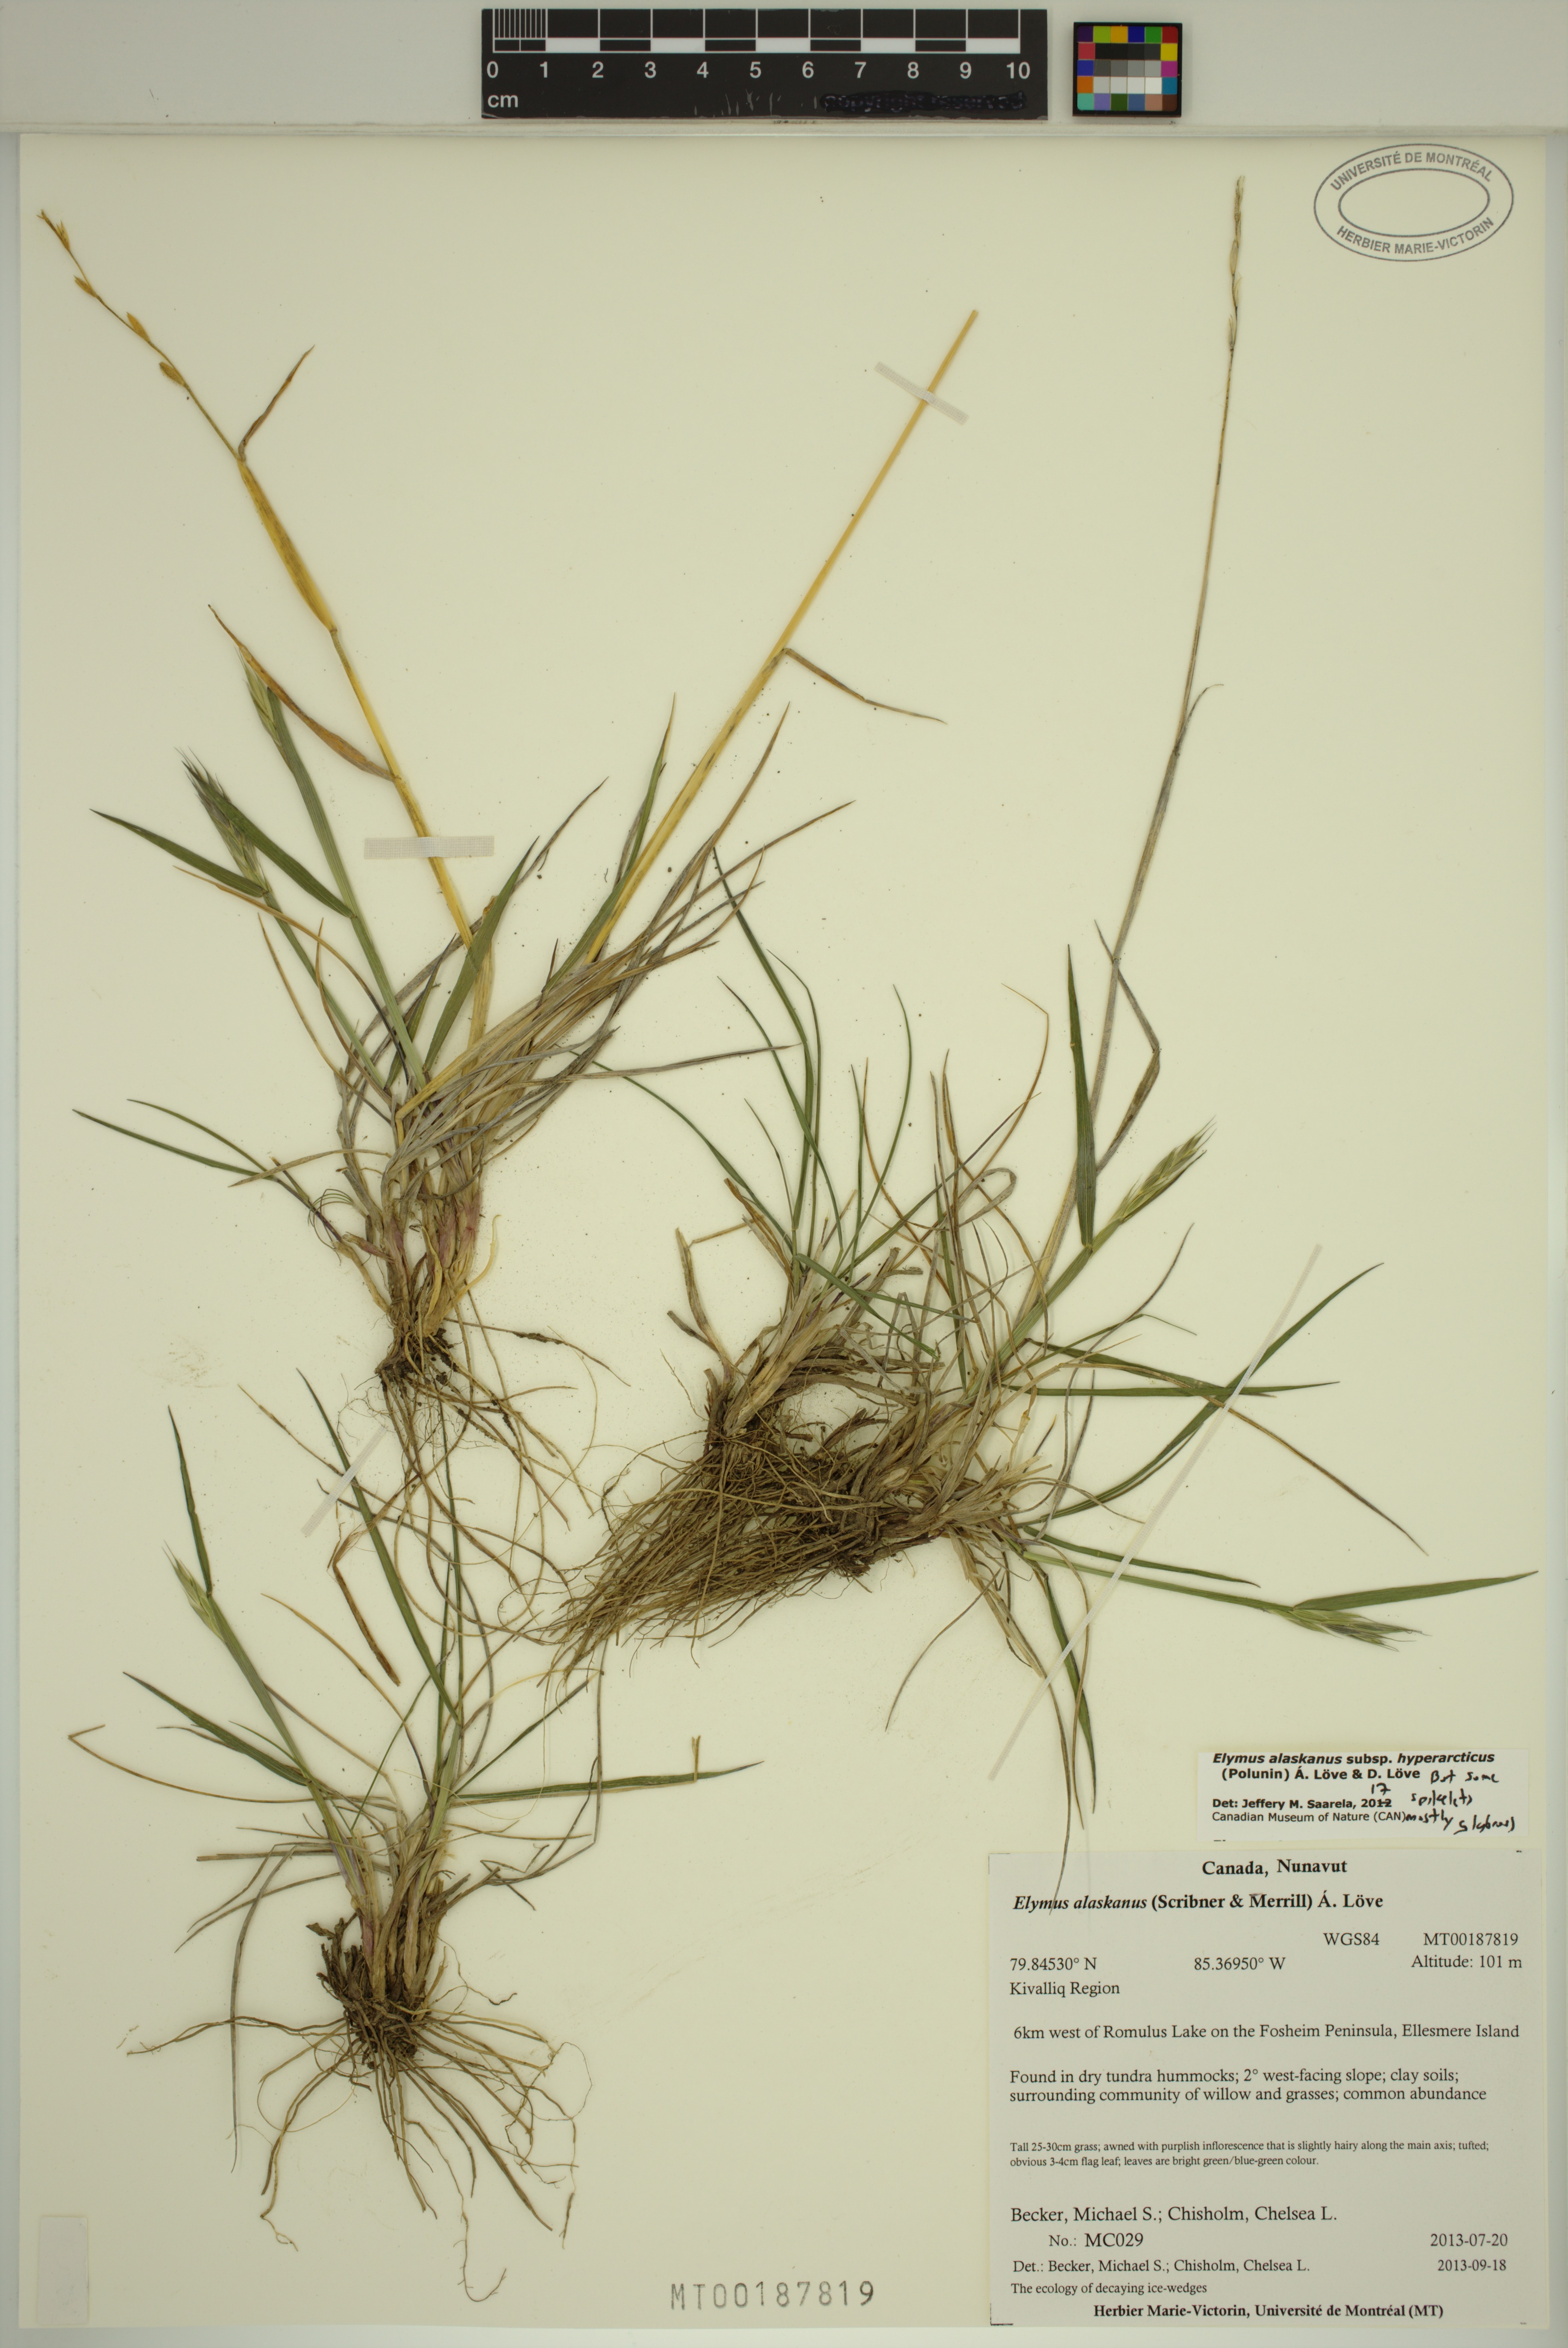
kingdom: Plantae
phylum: Tracheophyta
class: Liliopsida
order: Poales
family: Poaceae
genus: Elymus
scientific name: Elymus sajanensis
